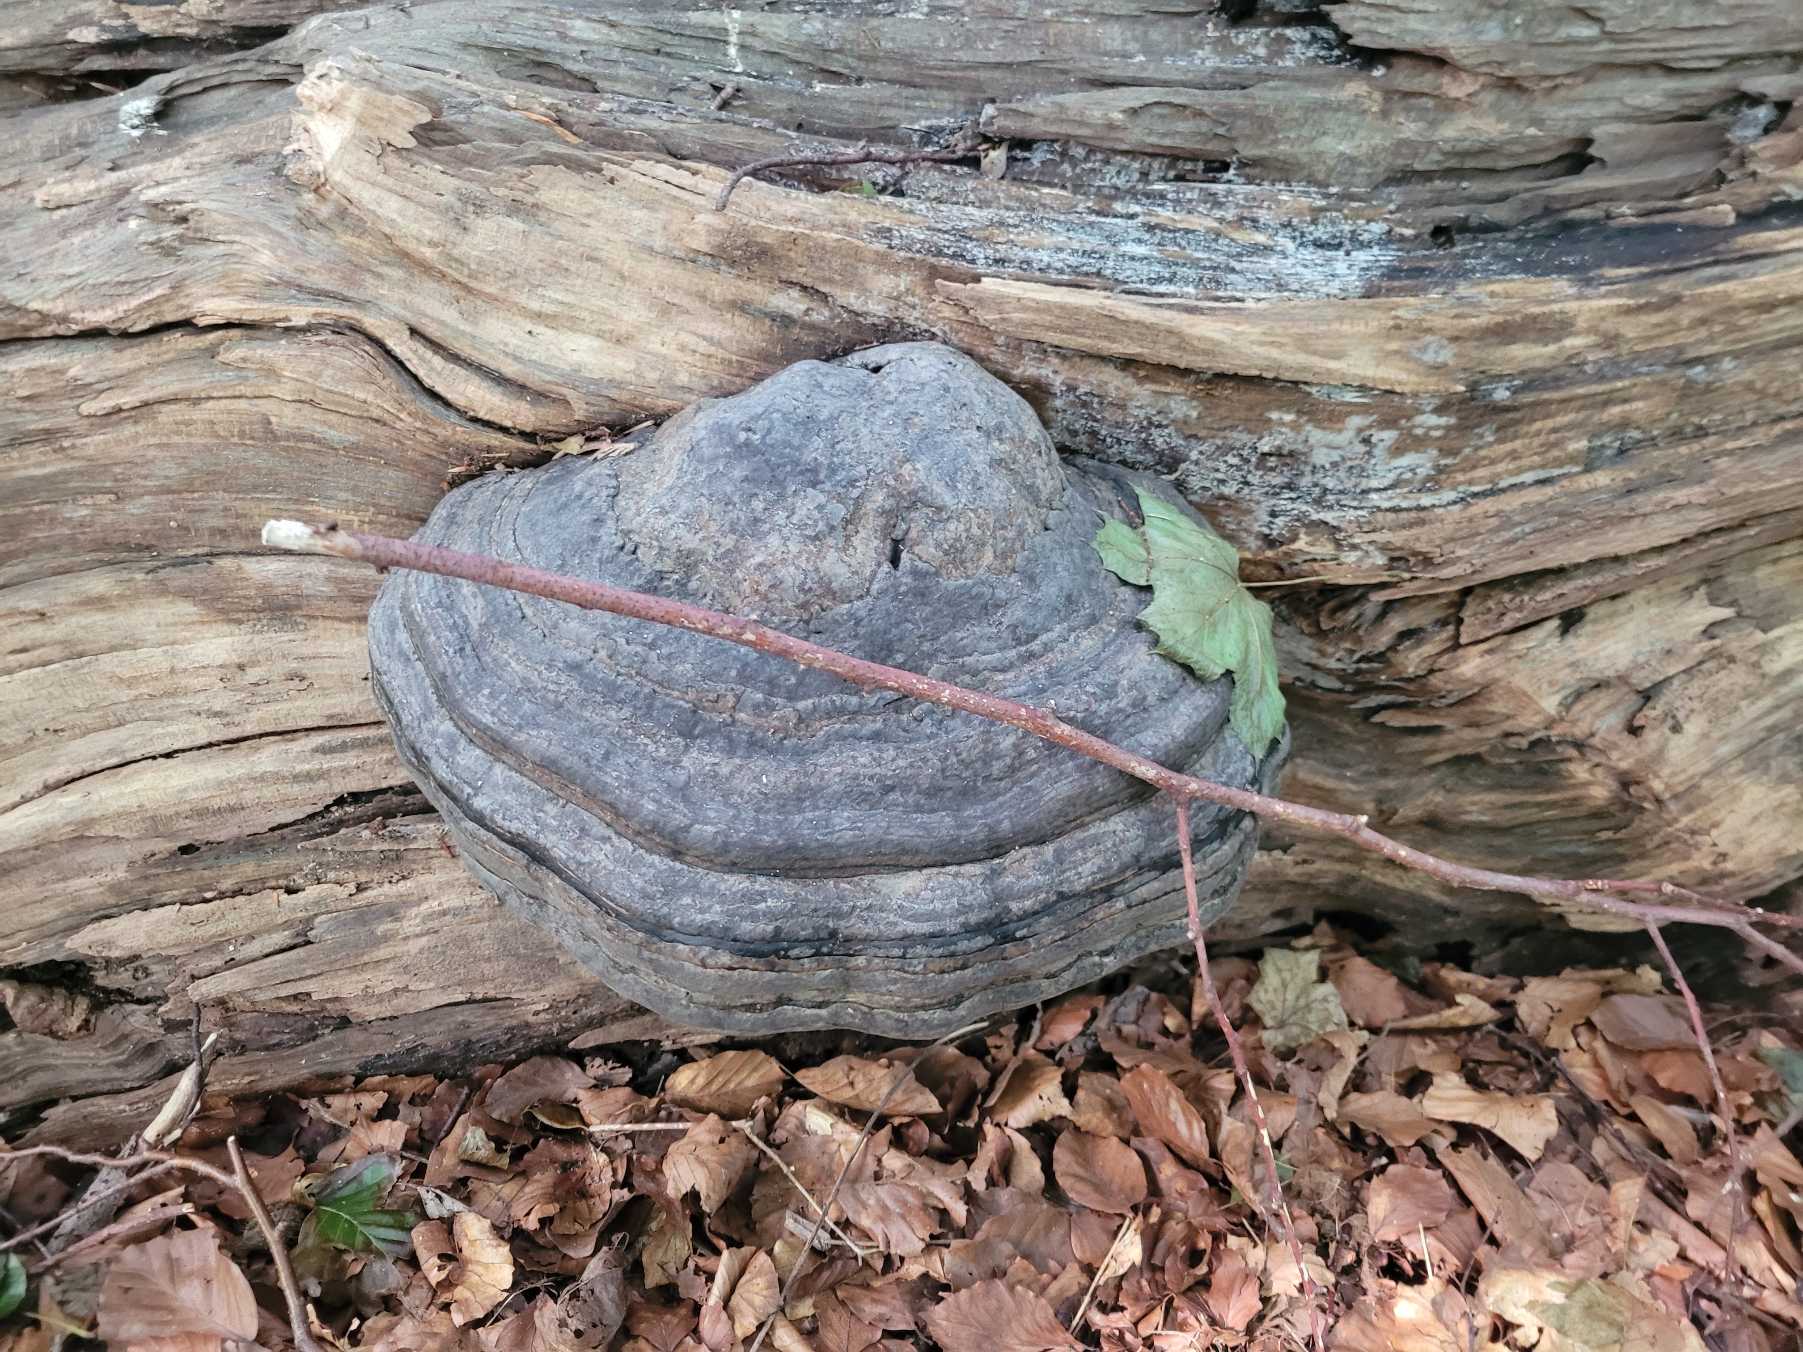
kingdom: Fungi
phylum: Basidiomycota
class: Agaricomycetes
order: Polyporales
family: Polyporaceae
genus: Fomes
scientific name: Fomes fomentarius
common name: Tøndersvamp
